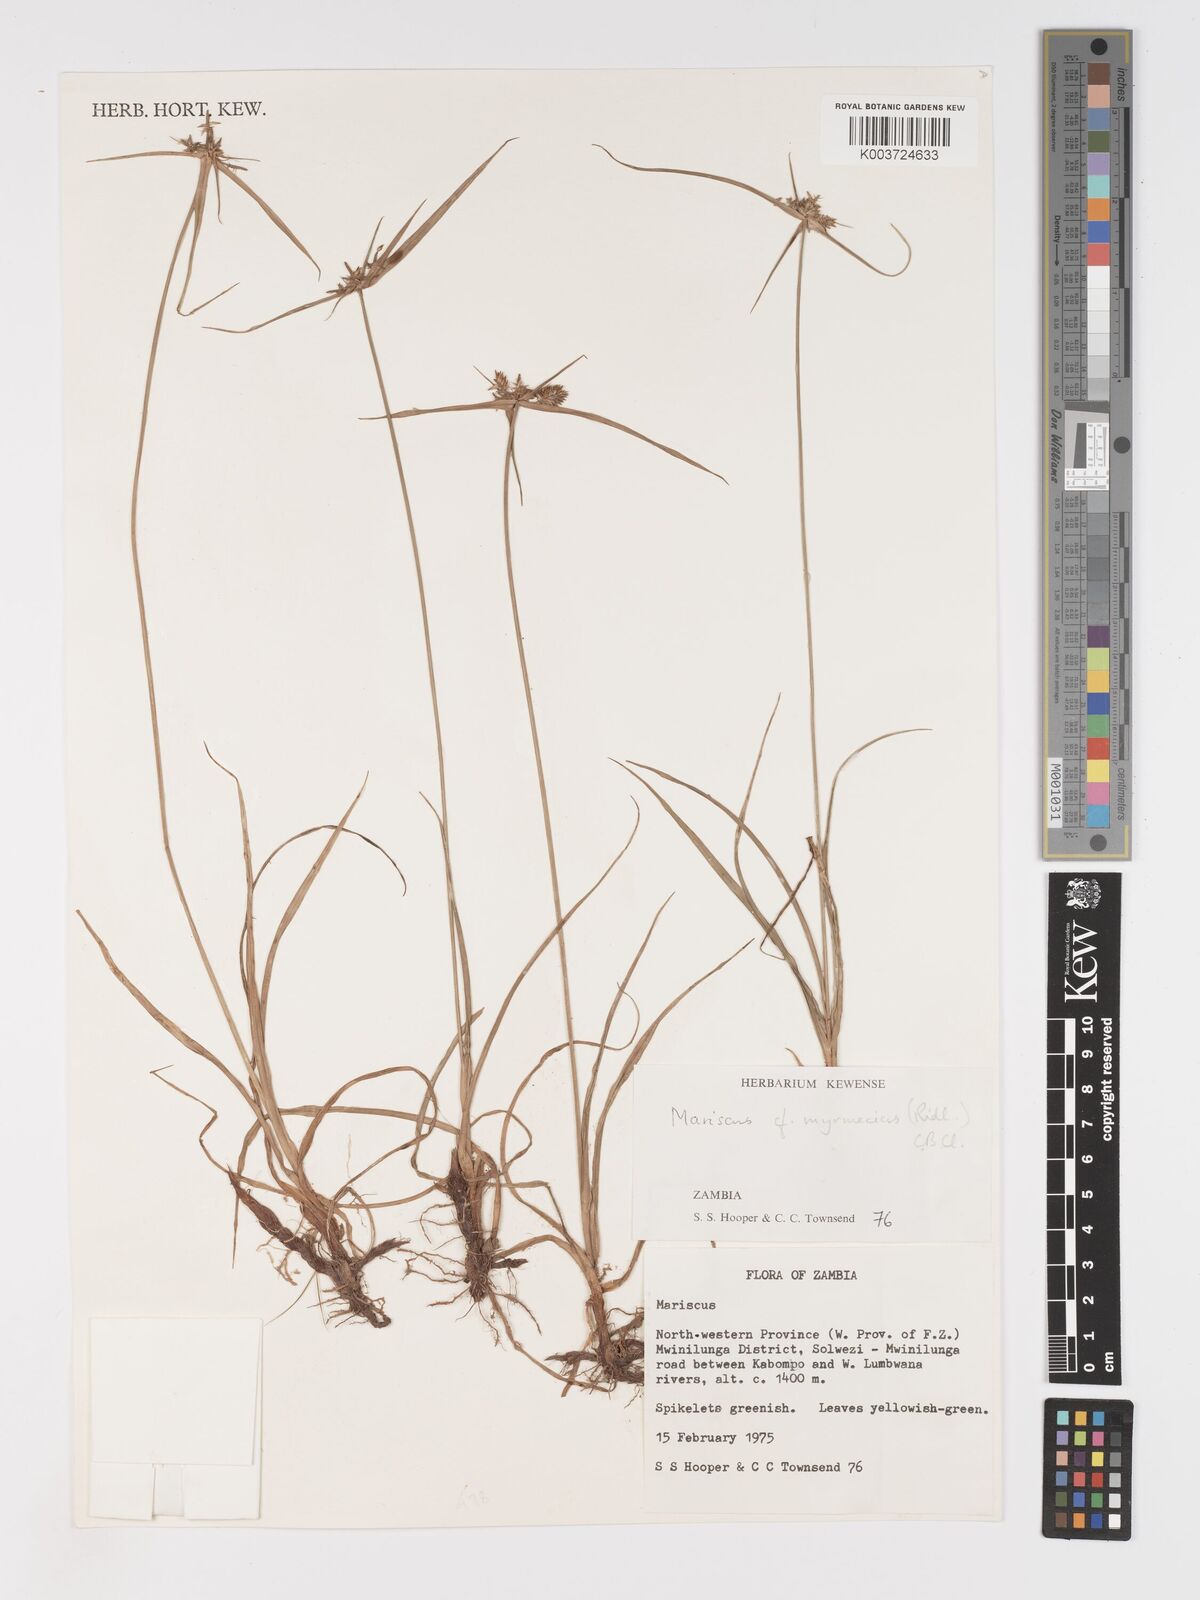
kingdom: Plantae
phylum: Tracheophyta
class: Liliopsida
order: Poales
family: Cyperaceae
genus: Cyperus
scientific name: Cyperus myrmecias
